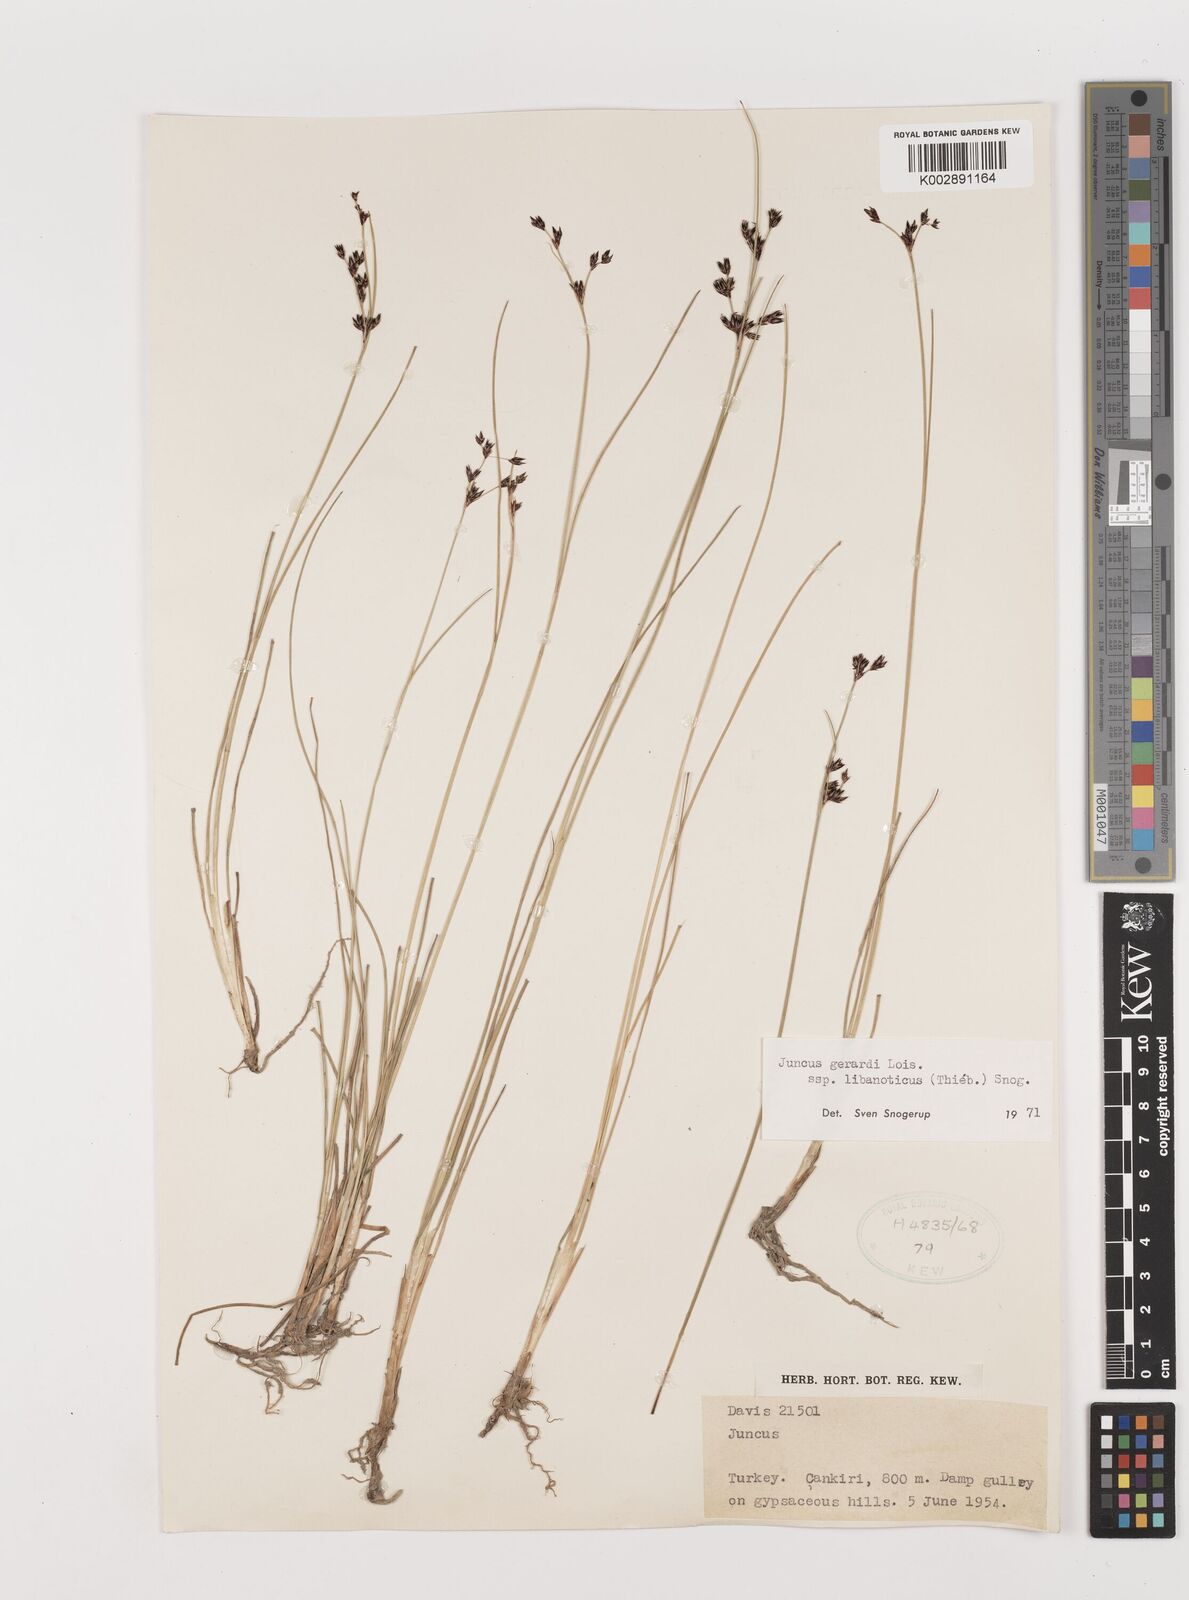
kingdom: Plantae
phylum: Tracheophyta
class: Liliopsida
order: Poales
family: Juncaceae
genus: Juncus
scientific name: Juncus persicus
